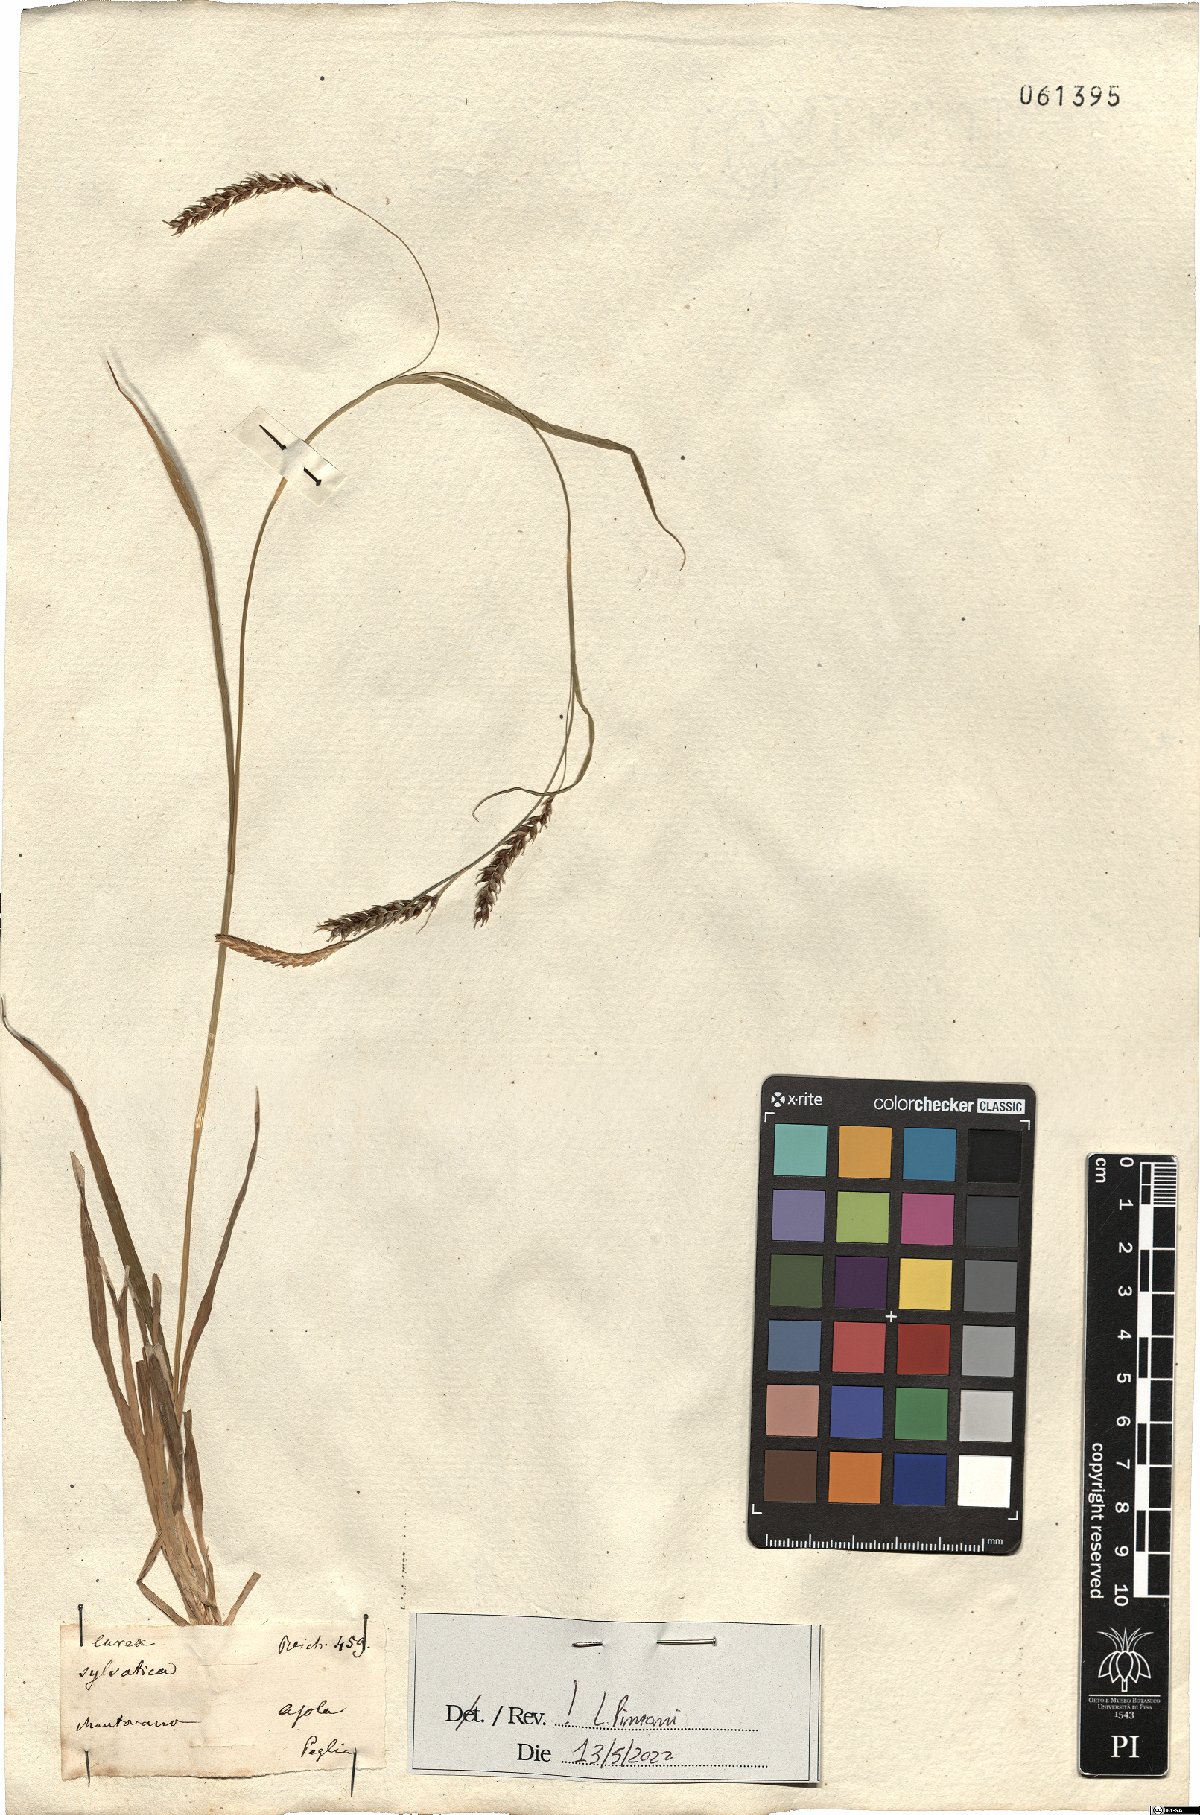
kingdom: Plantae
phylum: Tracheophyta
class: Liliopsida
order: Poales
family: Cyperaceae
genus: Carex
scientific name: Carex sylvatica
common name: Wood-sedge
